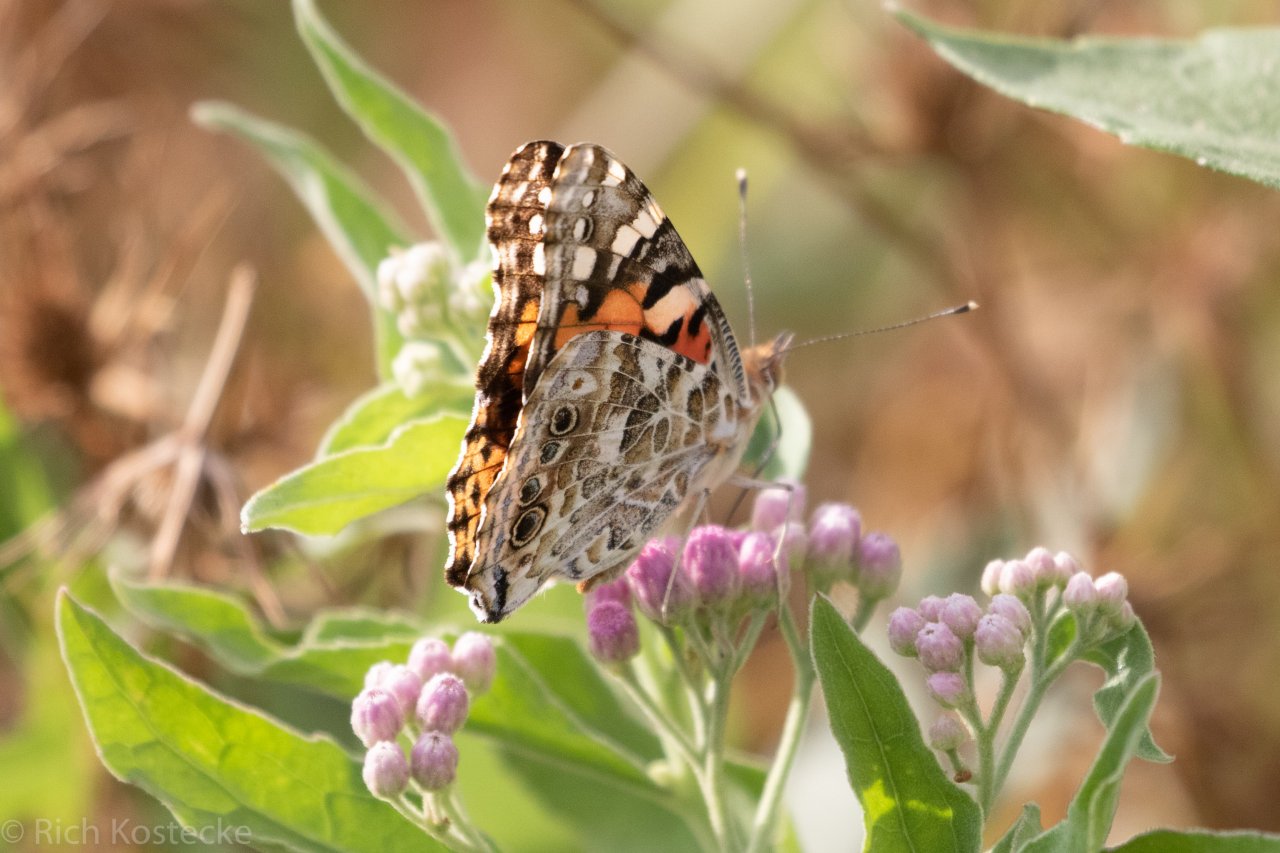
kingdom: Animalia
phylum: Arthropoda
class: Insecta
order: Lepidoptera
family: Nymphalidae
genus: Vanessa
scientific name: Vanessa cardui
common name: Painted Lady
